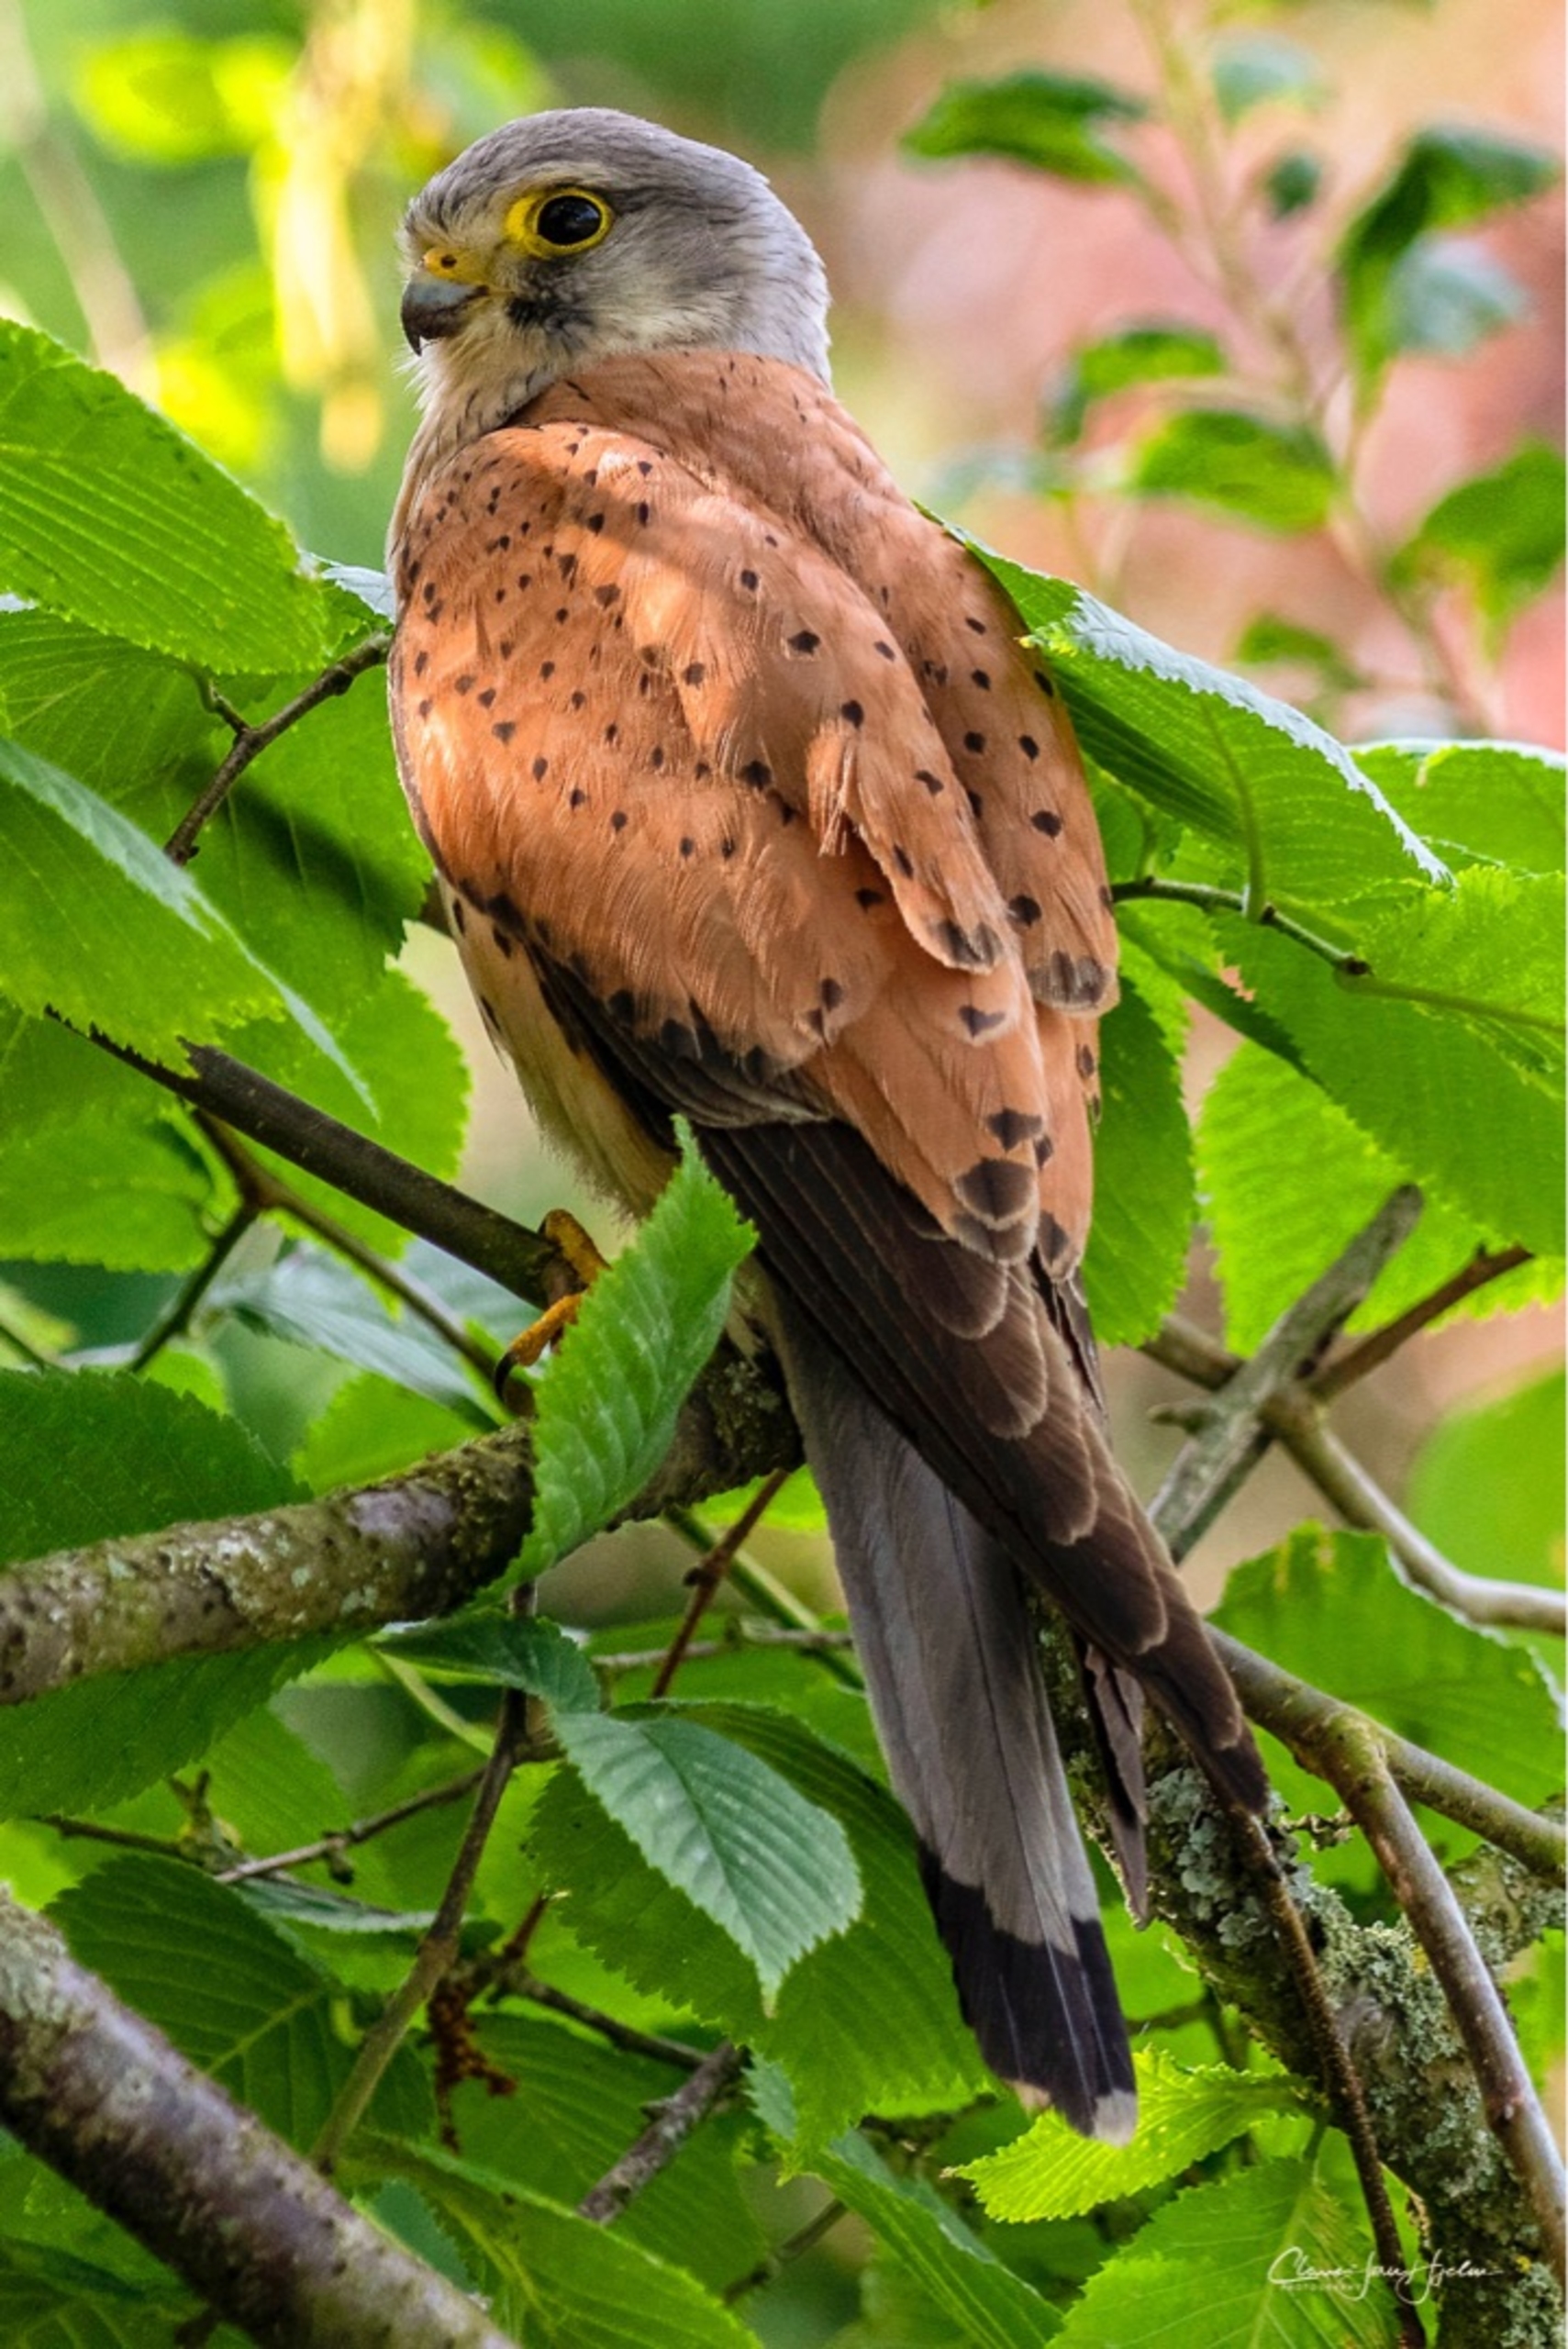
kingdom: Animalia
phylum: Chordata
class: Aves
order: Falconiformes
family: Falconidae
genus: Falco
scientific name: Falco tinnunculus
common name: Tårnfalk
